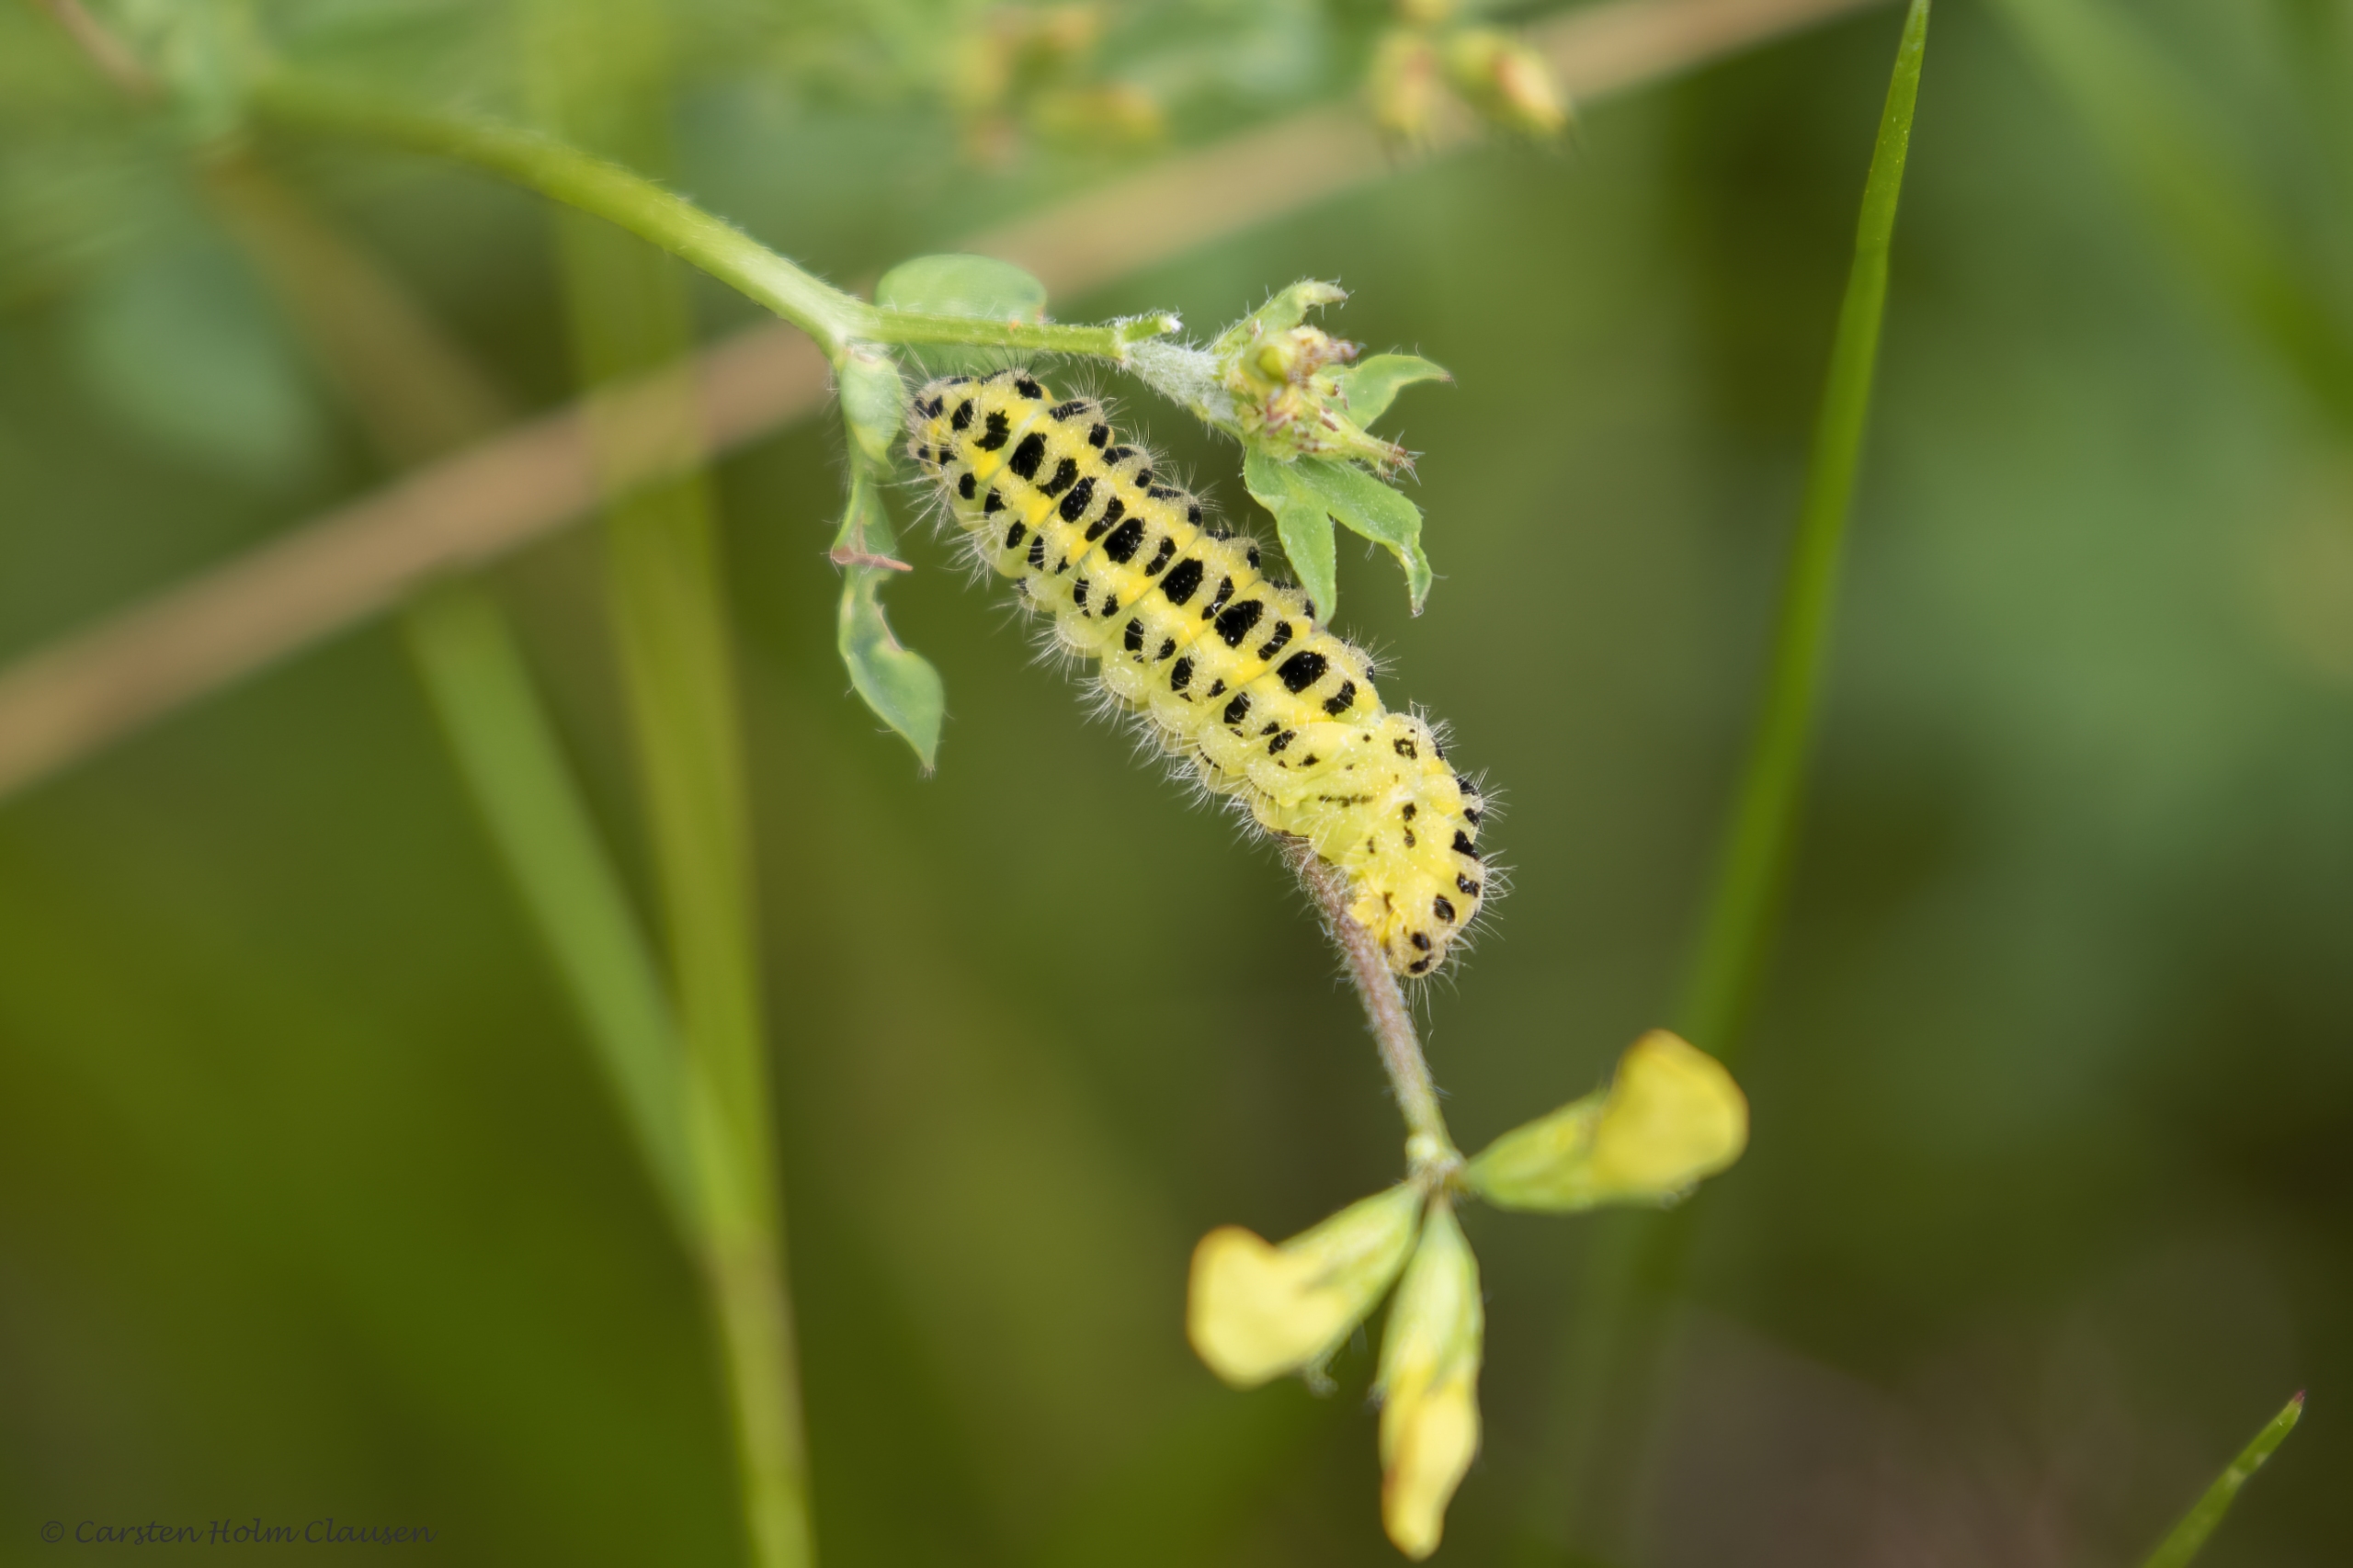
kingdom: Animalia
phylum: Arthropoda
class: Insecta
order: Lepidoptera
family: Zygaenidae
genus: Zygaena
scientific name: Zygaena filipendulae
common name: Seksplettet køllesværmer
